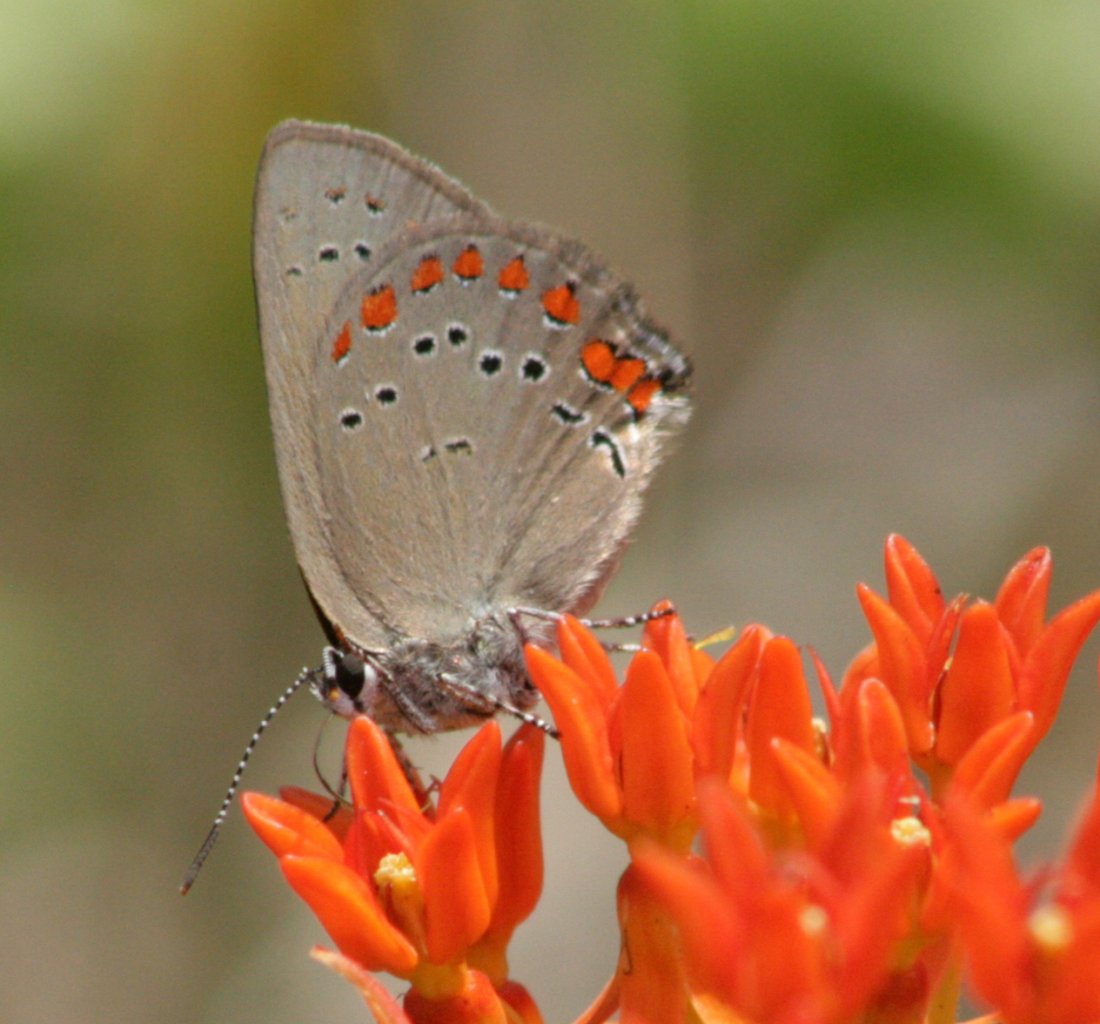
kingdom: Animalia
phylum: Arthropoda
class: Insecta
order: Lepidoptera
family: Lycaenidae
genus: Harkenclenus
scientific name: Harkenclenus titus
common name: Coral Hairstreak
